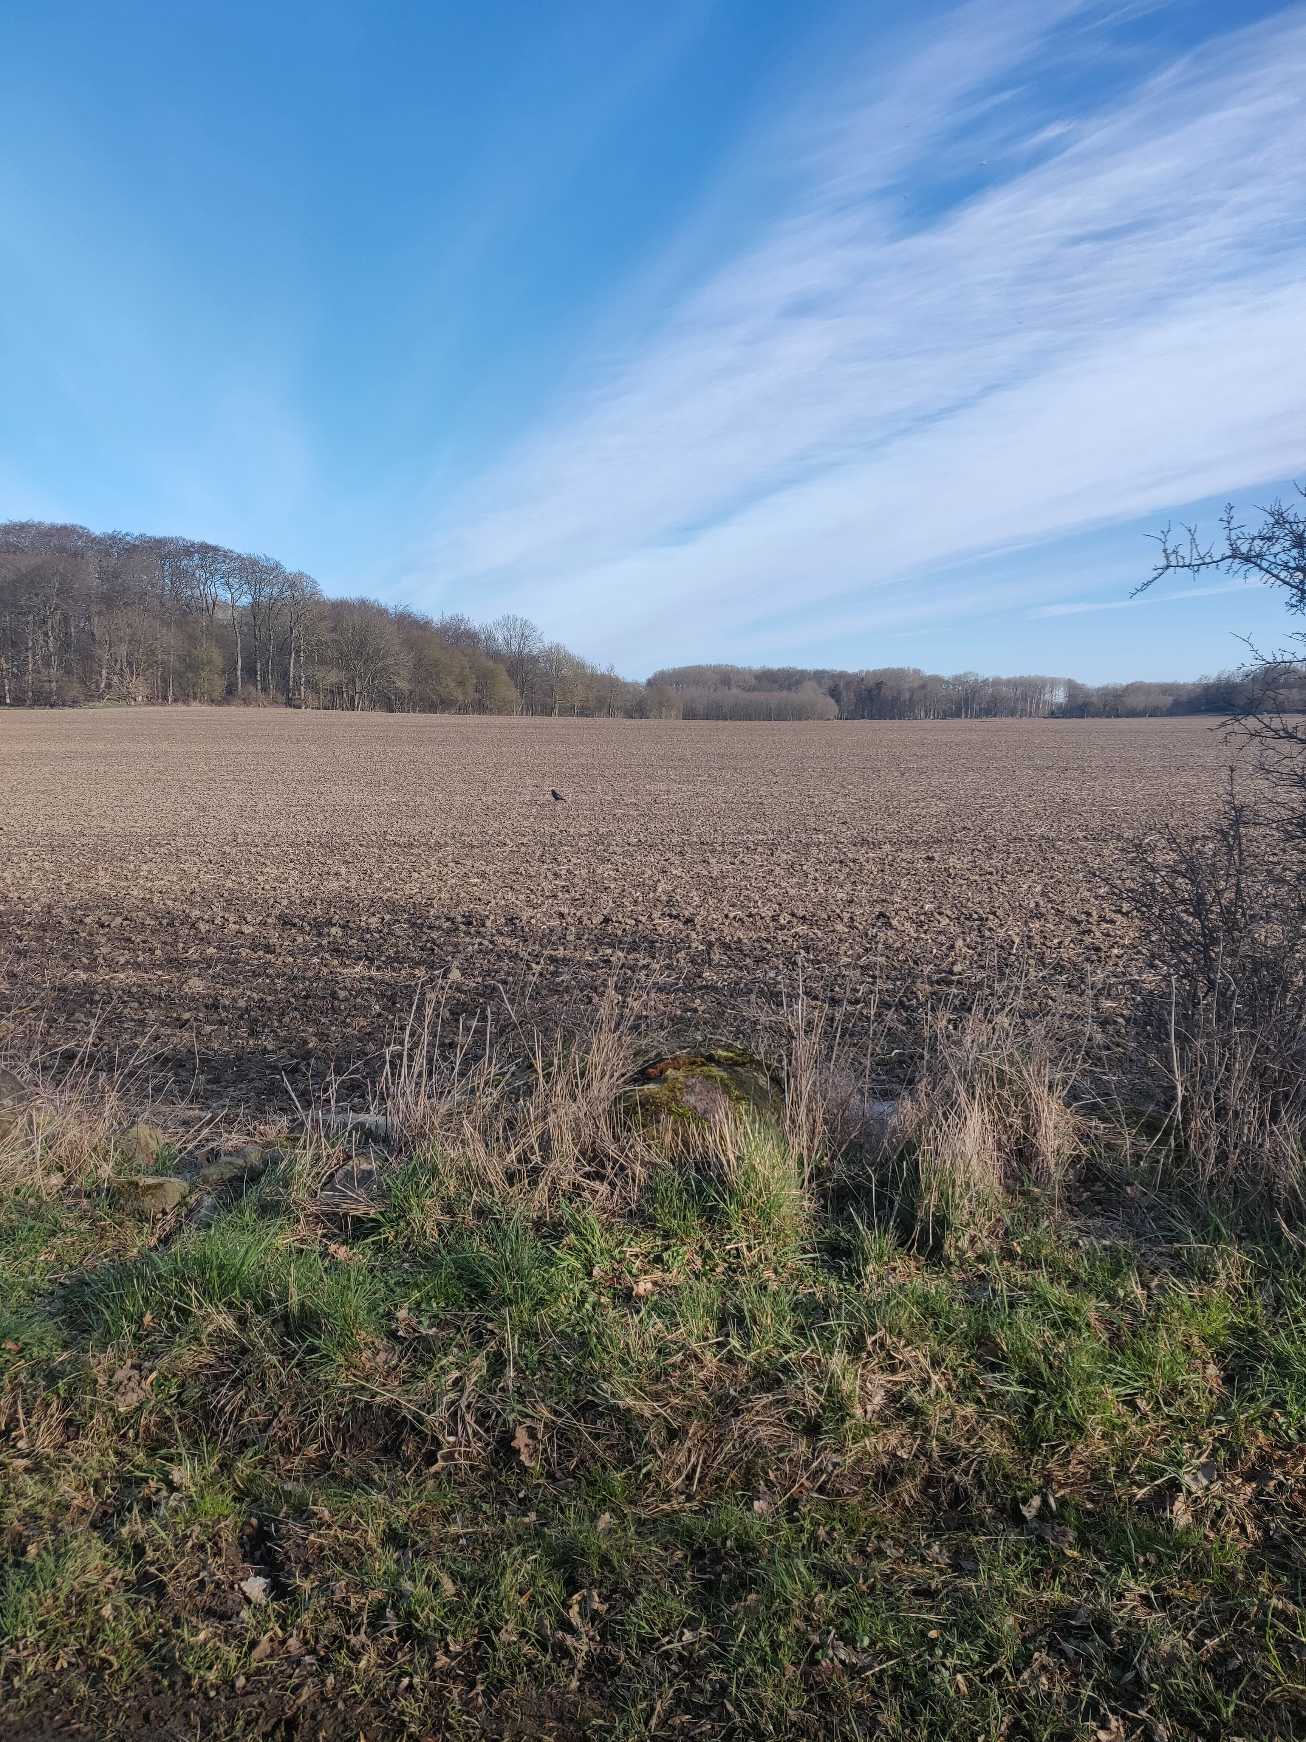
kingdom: Animalia
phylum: Chordata
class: Aves
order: Passeriformes
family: Corvidae
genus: Corvus
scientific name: Corvus corax
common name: Ravn
